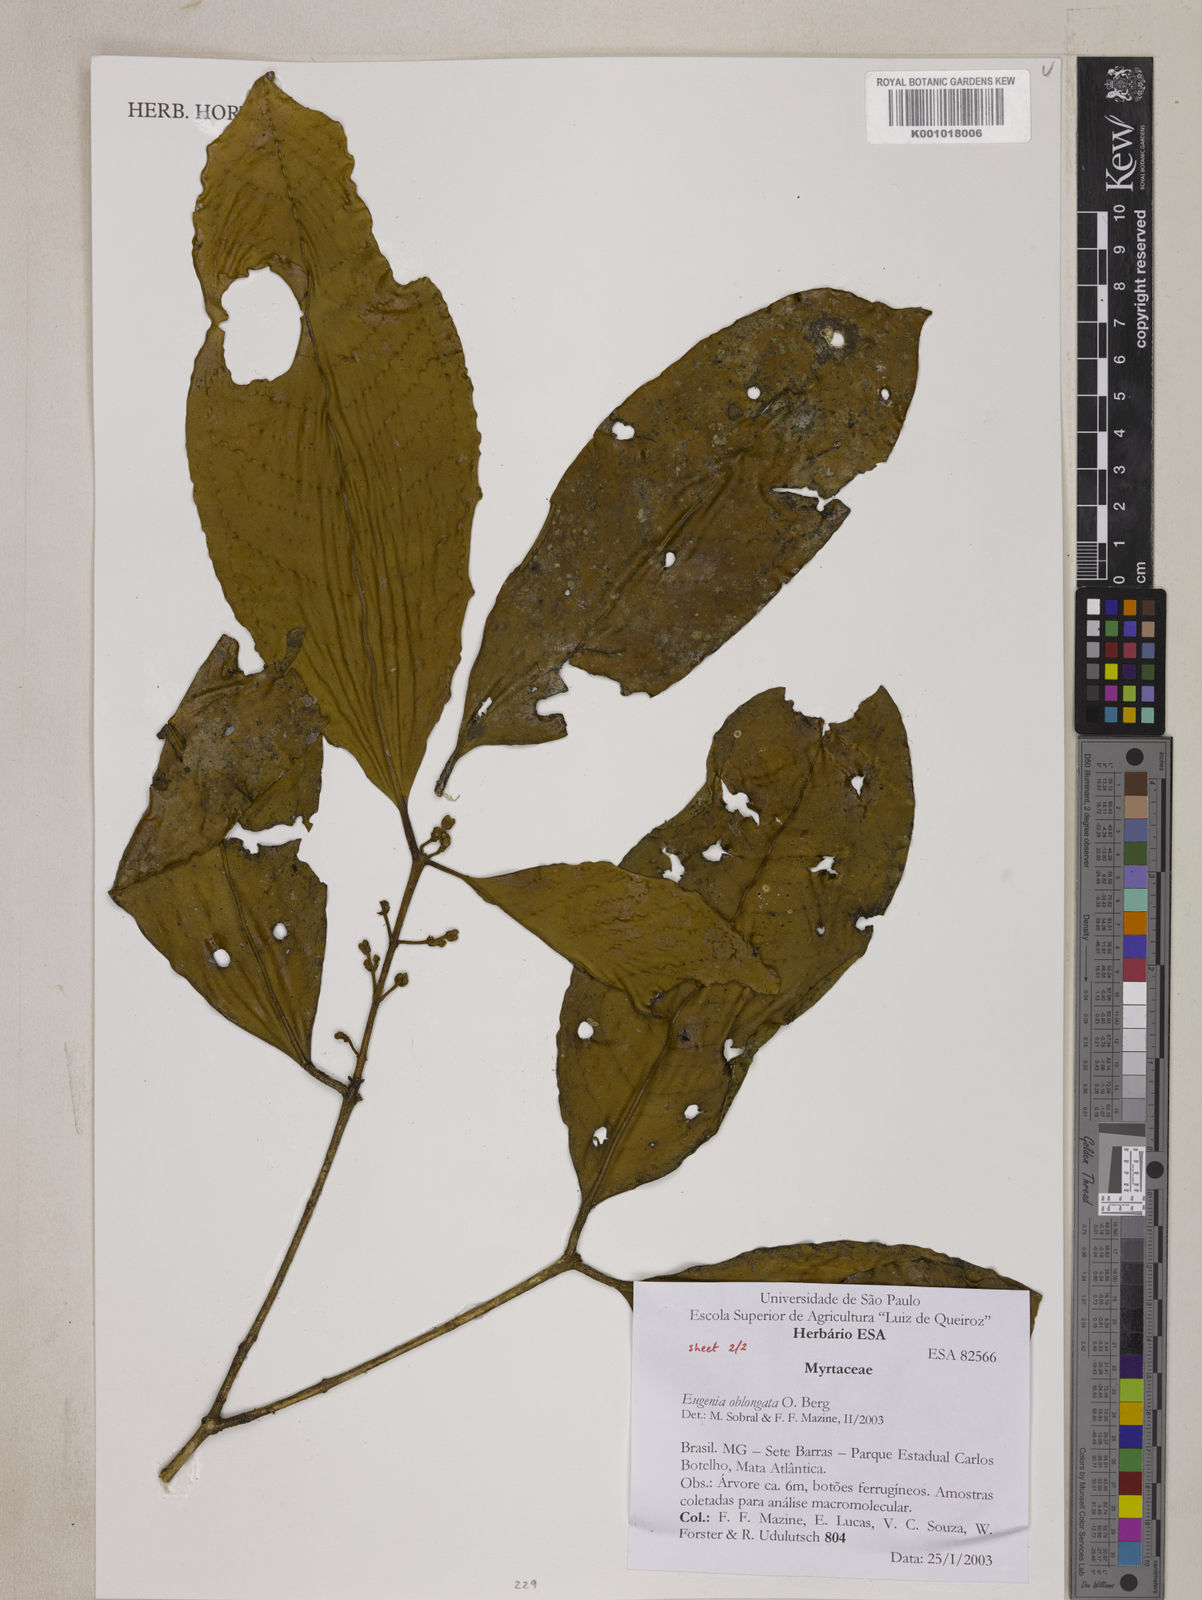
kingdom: Plantae
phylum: Tracheophyta
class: Magnoliopsida
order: Myrtales
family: Myrtaceae
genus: Eugenia
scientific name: Eugenia oblongata
